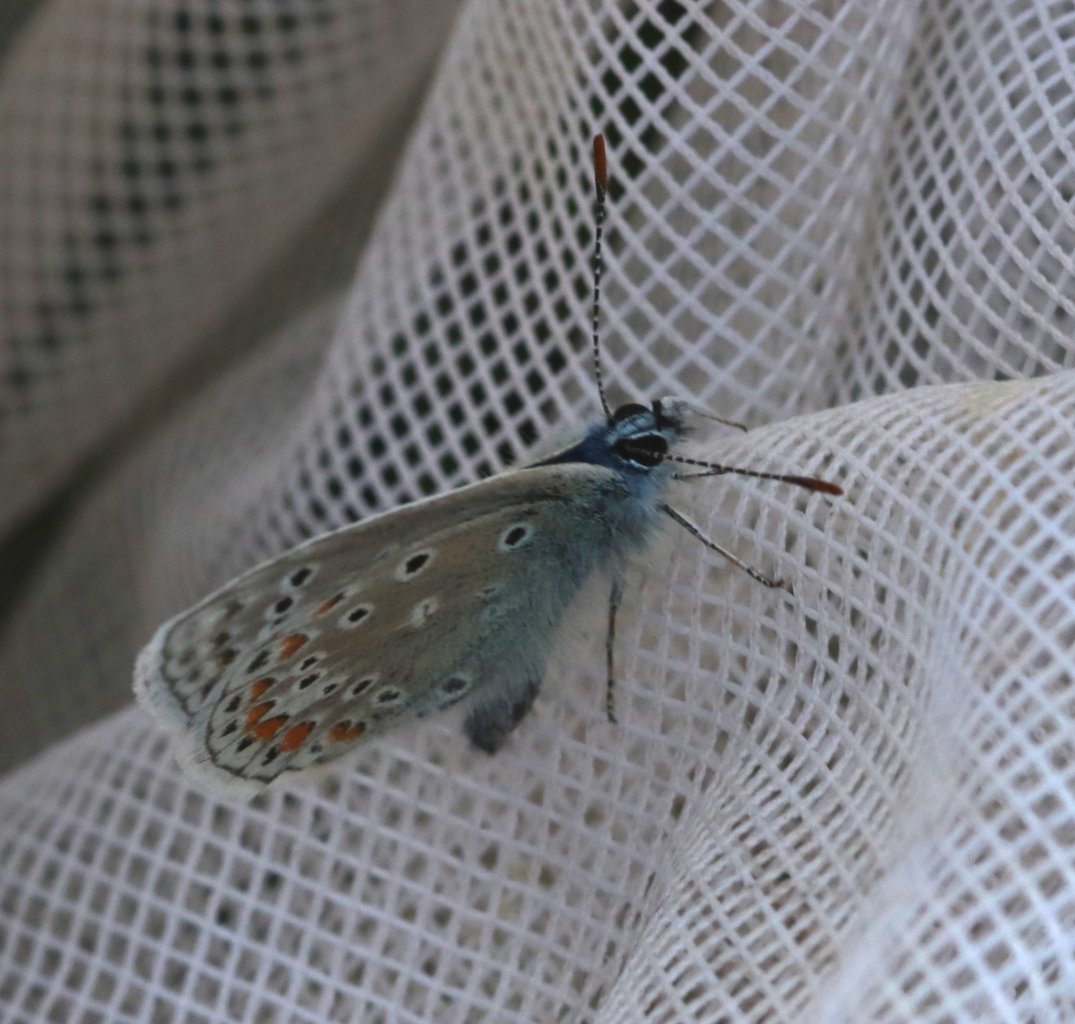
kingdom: Animalia
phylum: Arthropoda
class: Insecta
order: Lepidoptera
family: Lycaenidae
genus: Polyommatus
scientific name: Polyommatus icarus
